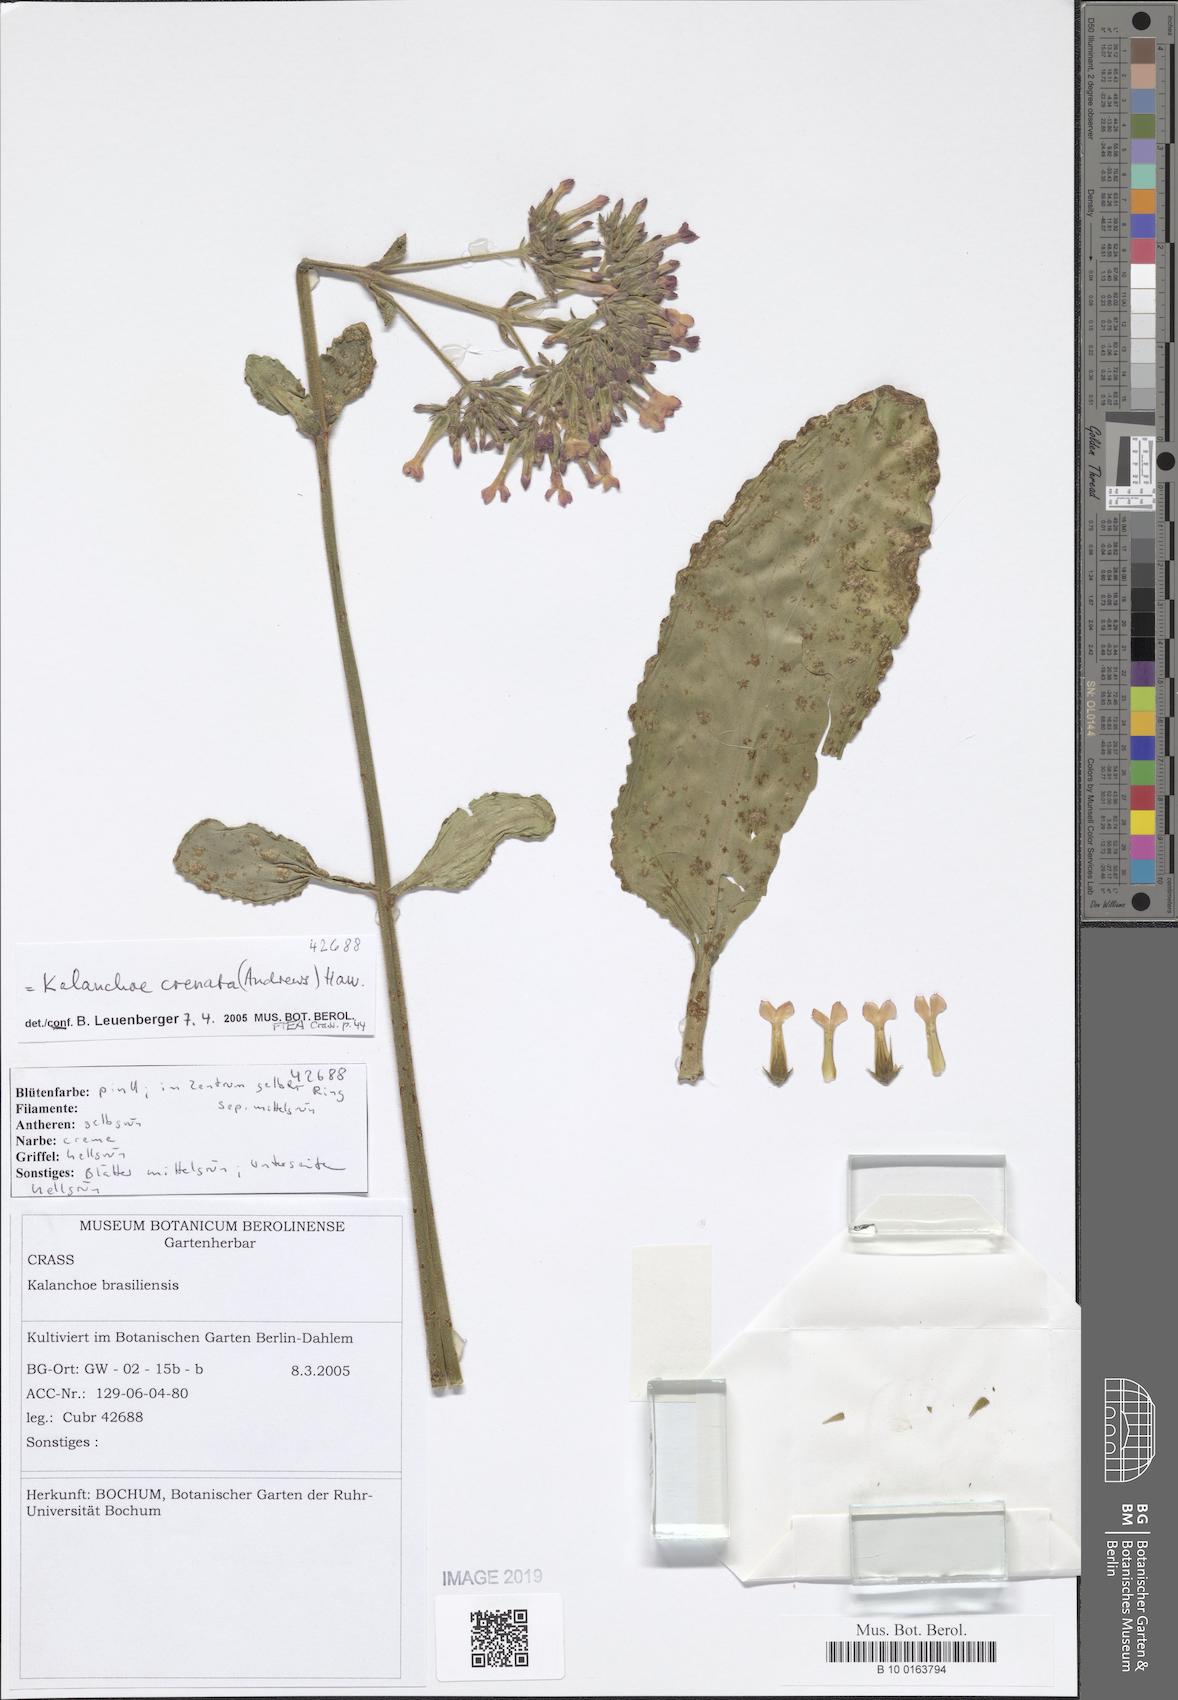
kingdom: Plantae
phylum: Tracheophyta
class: Magnoliopsida
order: Saxifragales
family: Crassulaceae
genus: Kalanchoe
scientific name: Kalanchoe crenata
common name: Neverdie
